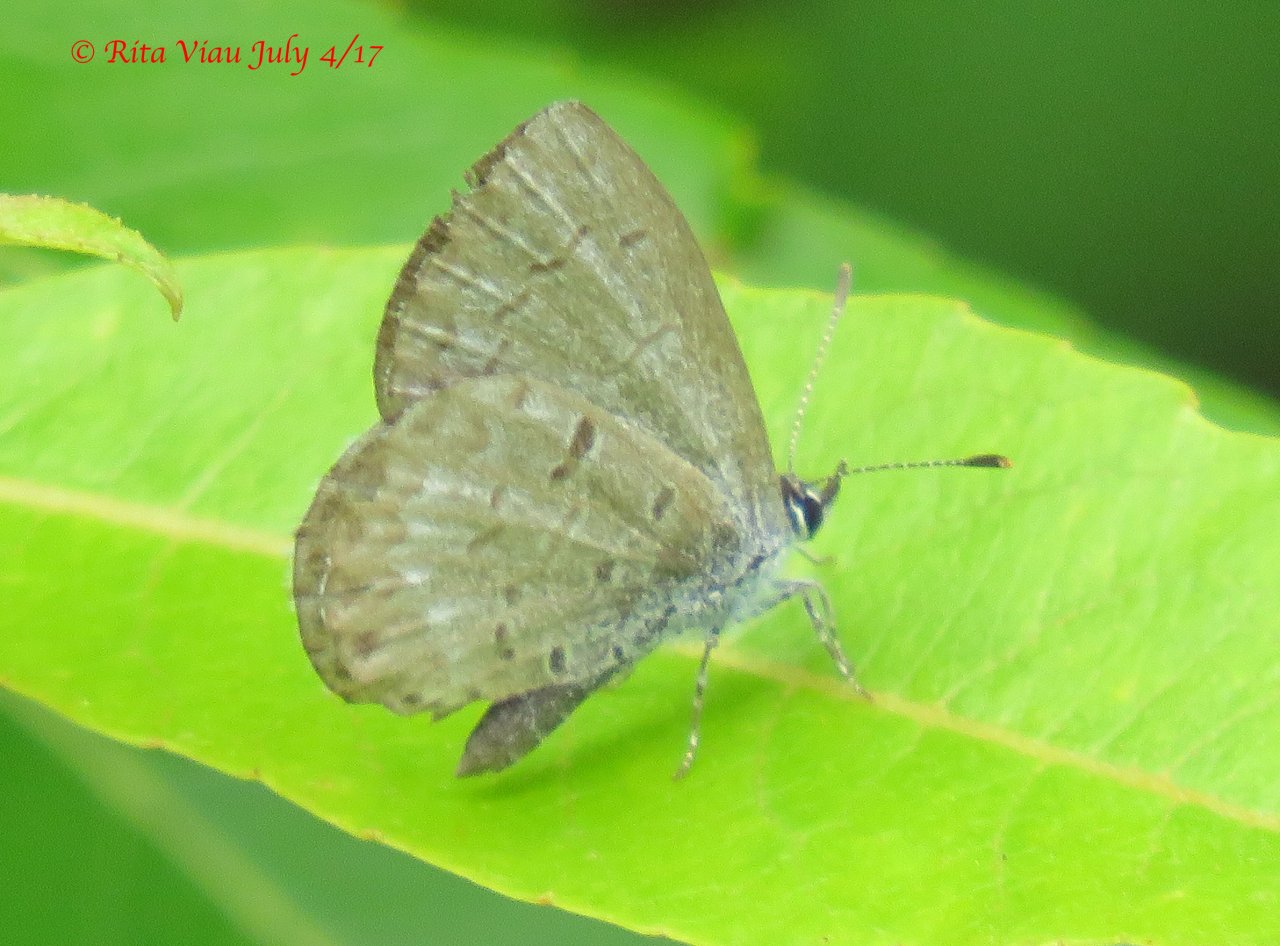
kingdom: Animalia
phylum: Arthropoda
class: Insecta
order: Lepidoptera
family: Lycaenidae
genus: Celastrina
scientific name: Celastrina
